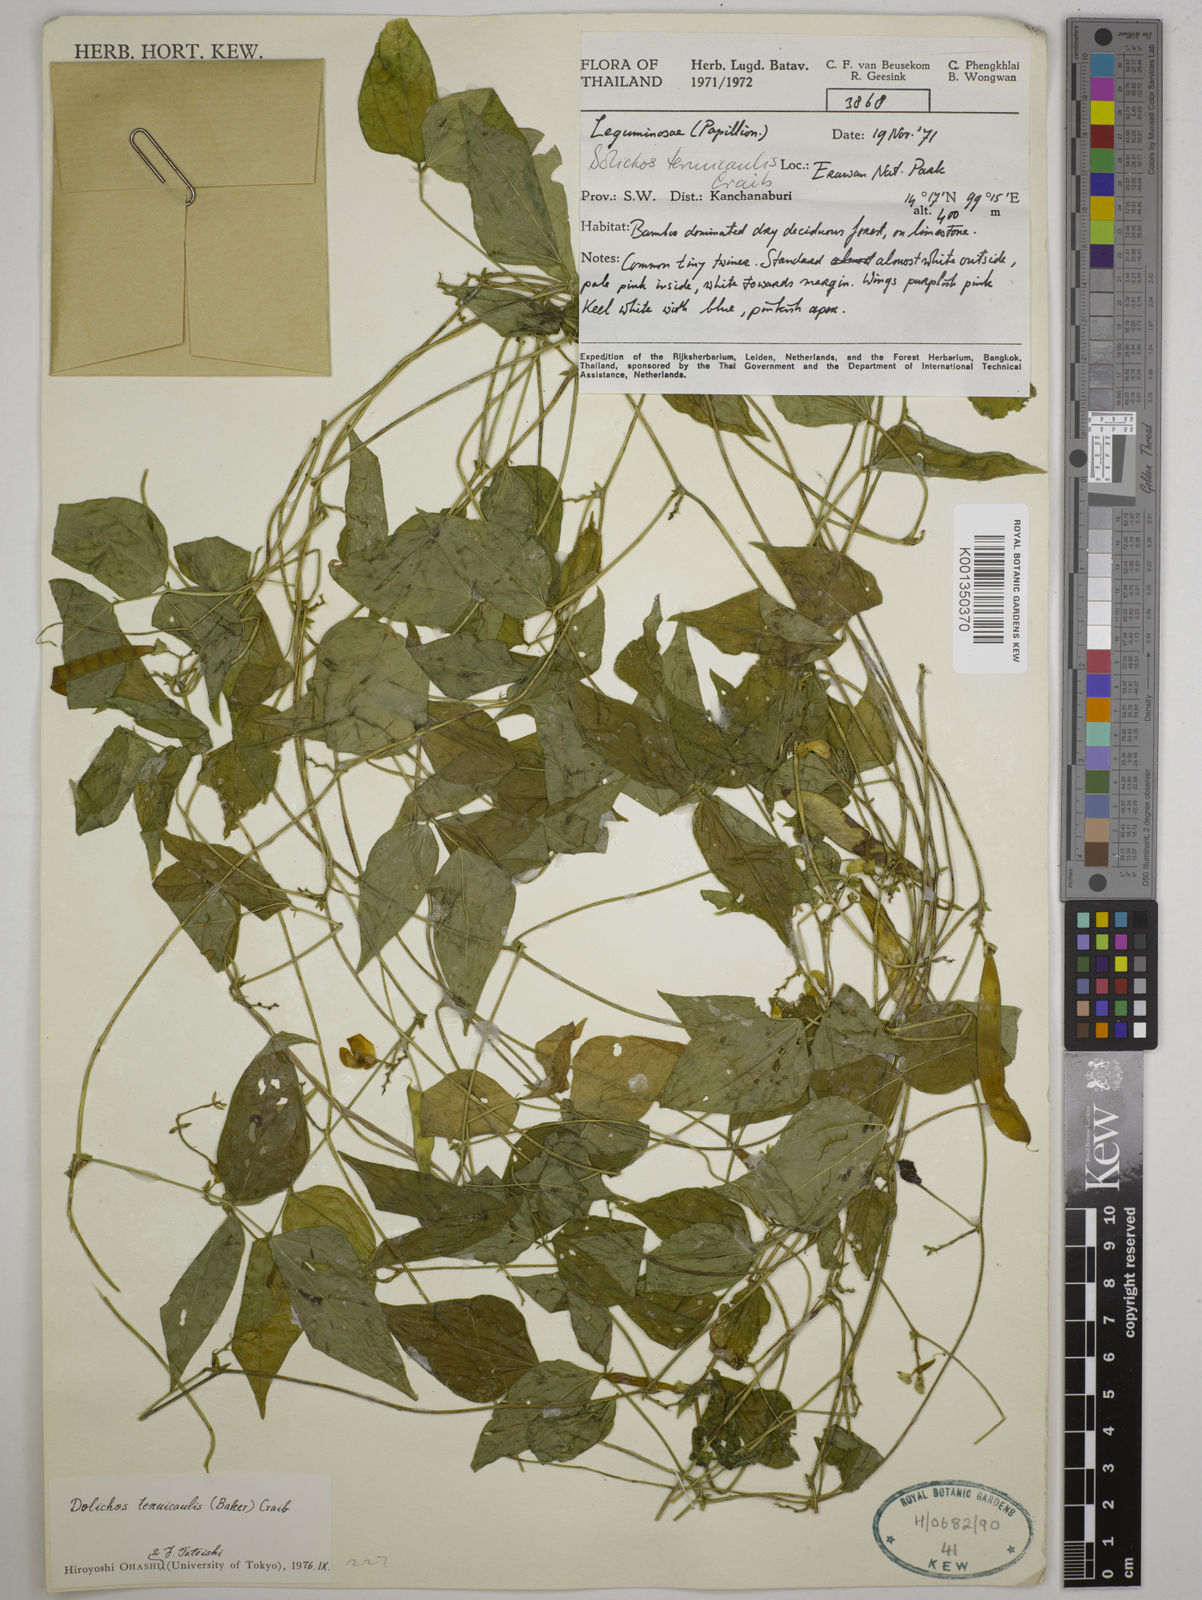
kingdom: Plantae
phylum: Tracheophyta
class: Magnoliopsida
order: Fabales
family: Fabaceae
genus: Dolichos
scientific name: Dolichos tenuicaulis
